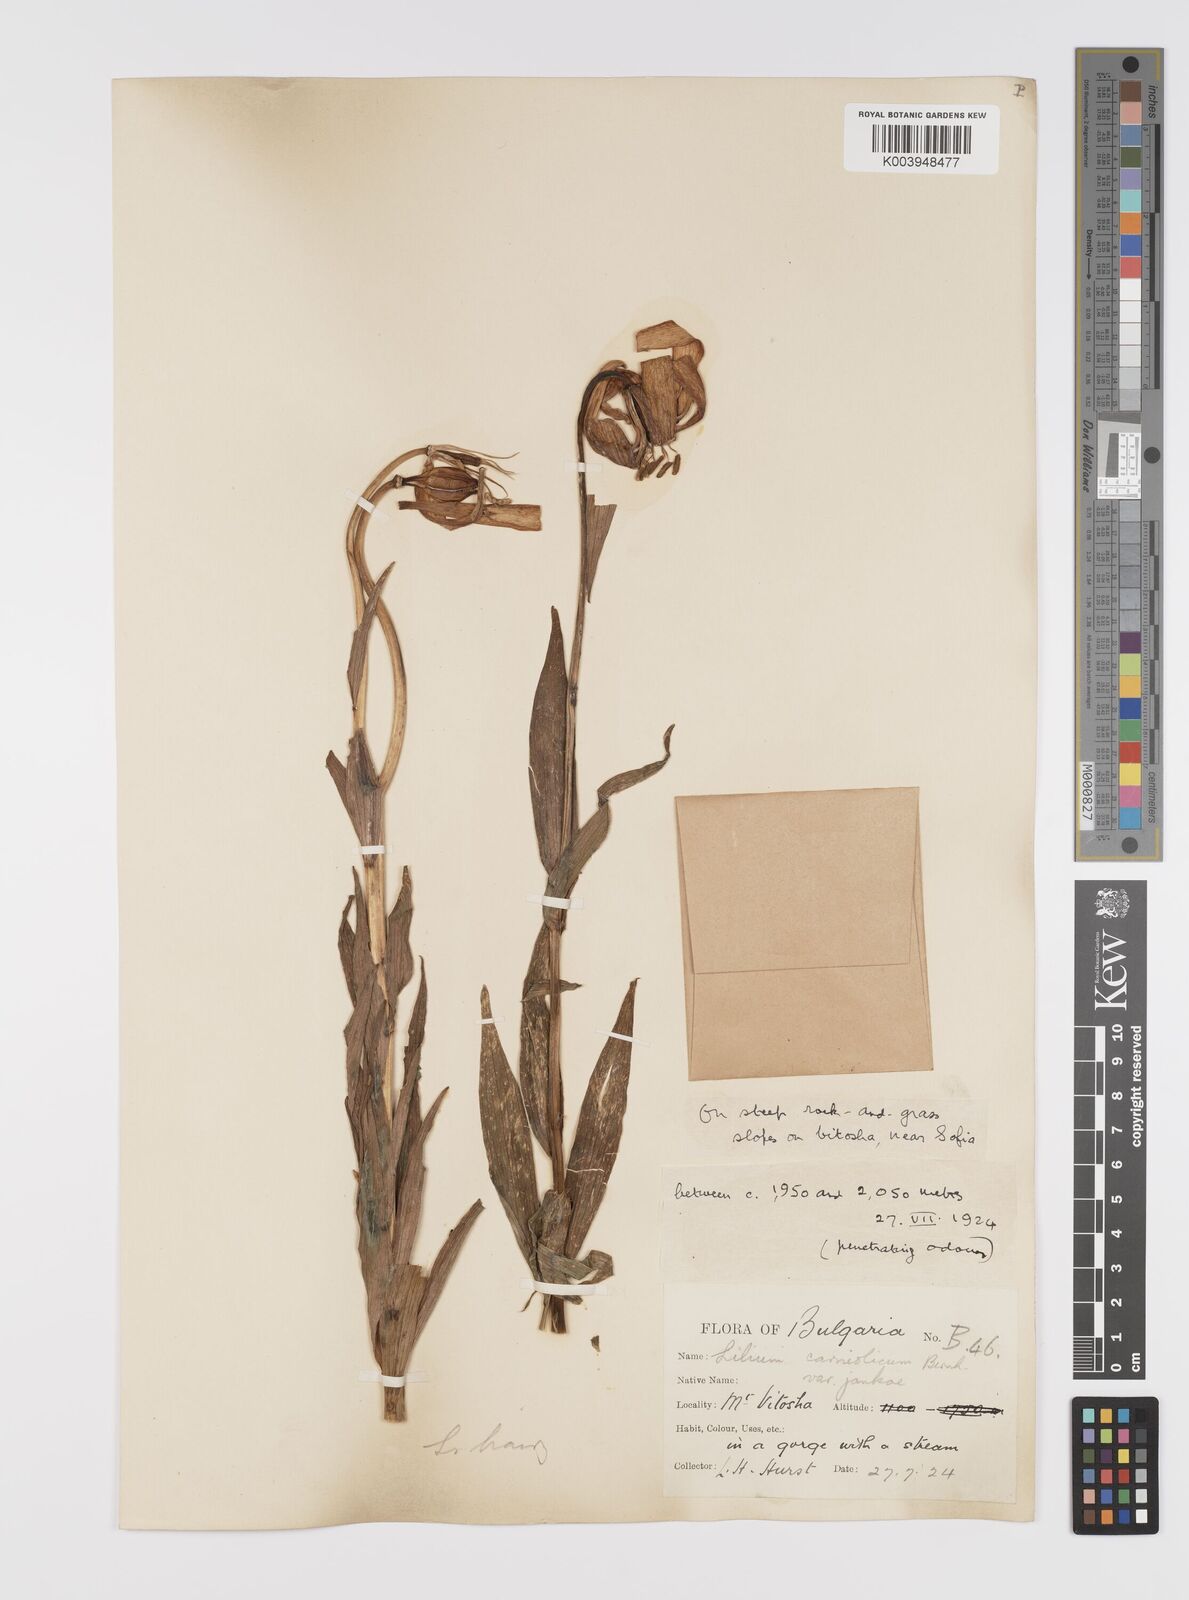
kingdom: Plantae
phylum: Tracheophyta
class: Liliopsida
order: Liliales
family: Liliaceae
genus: Lilium
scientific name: Lilium jankae
